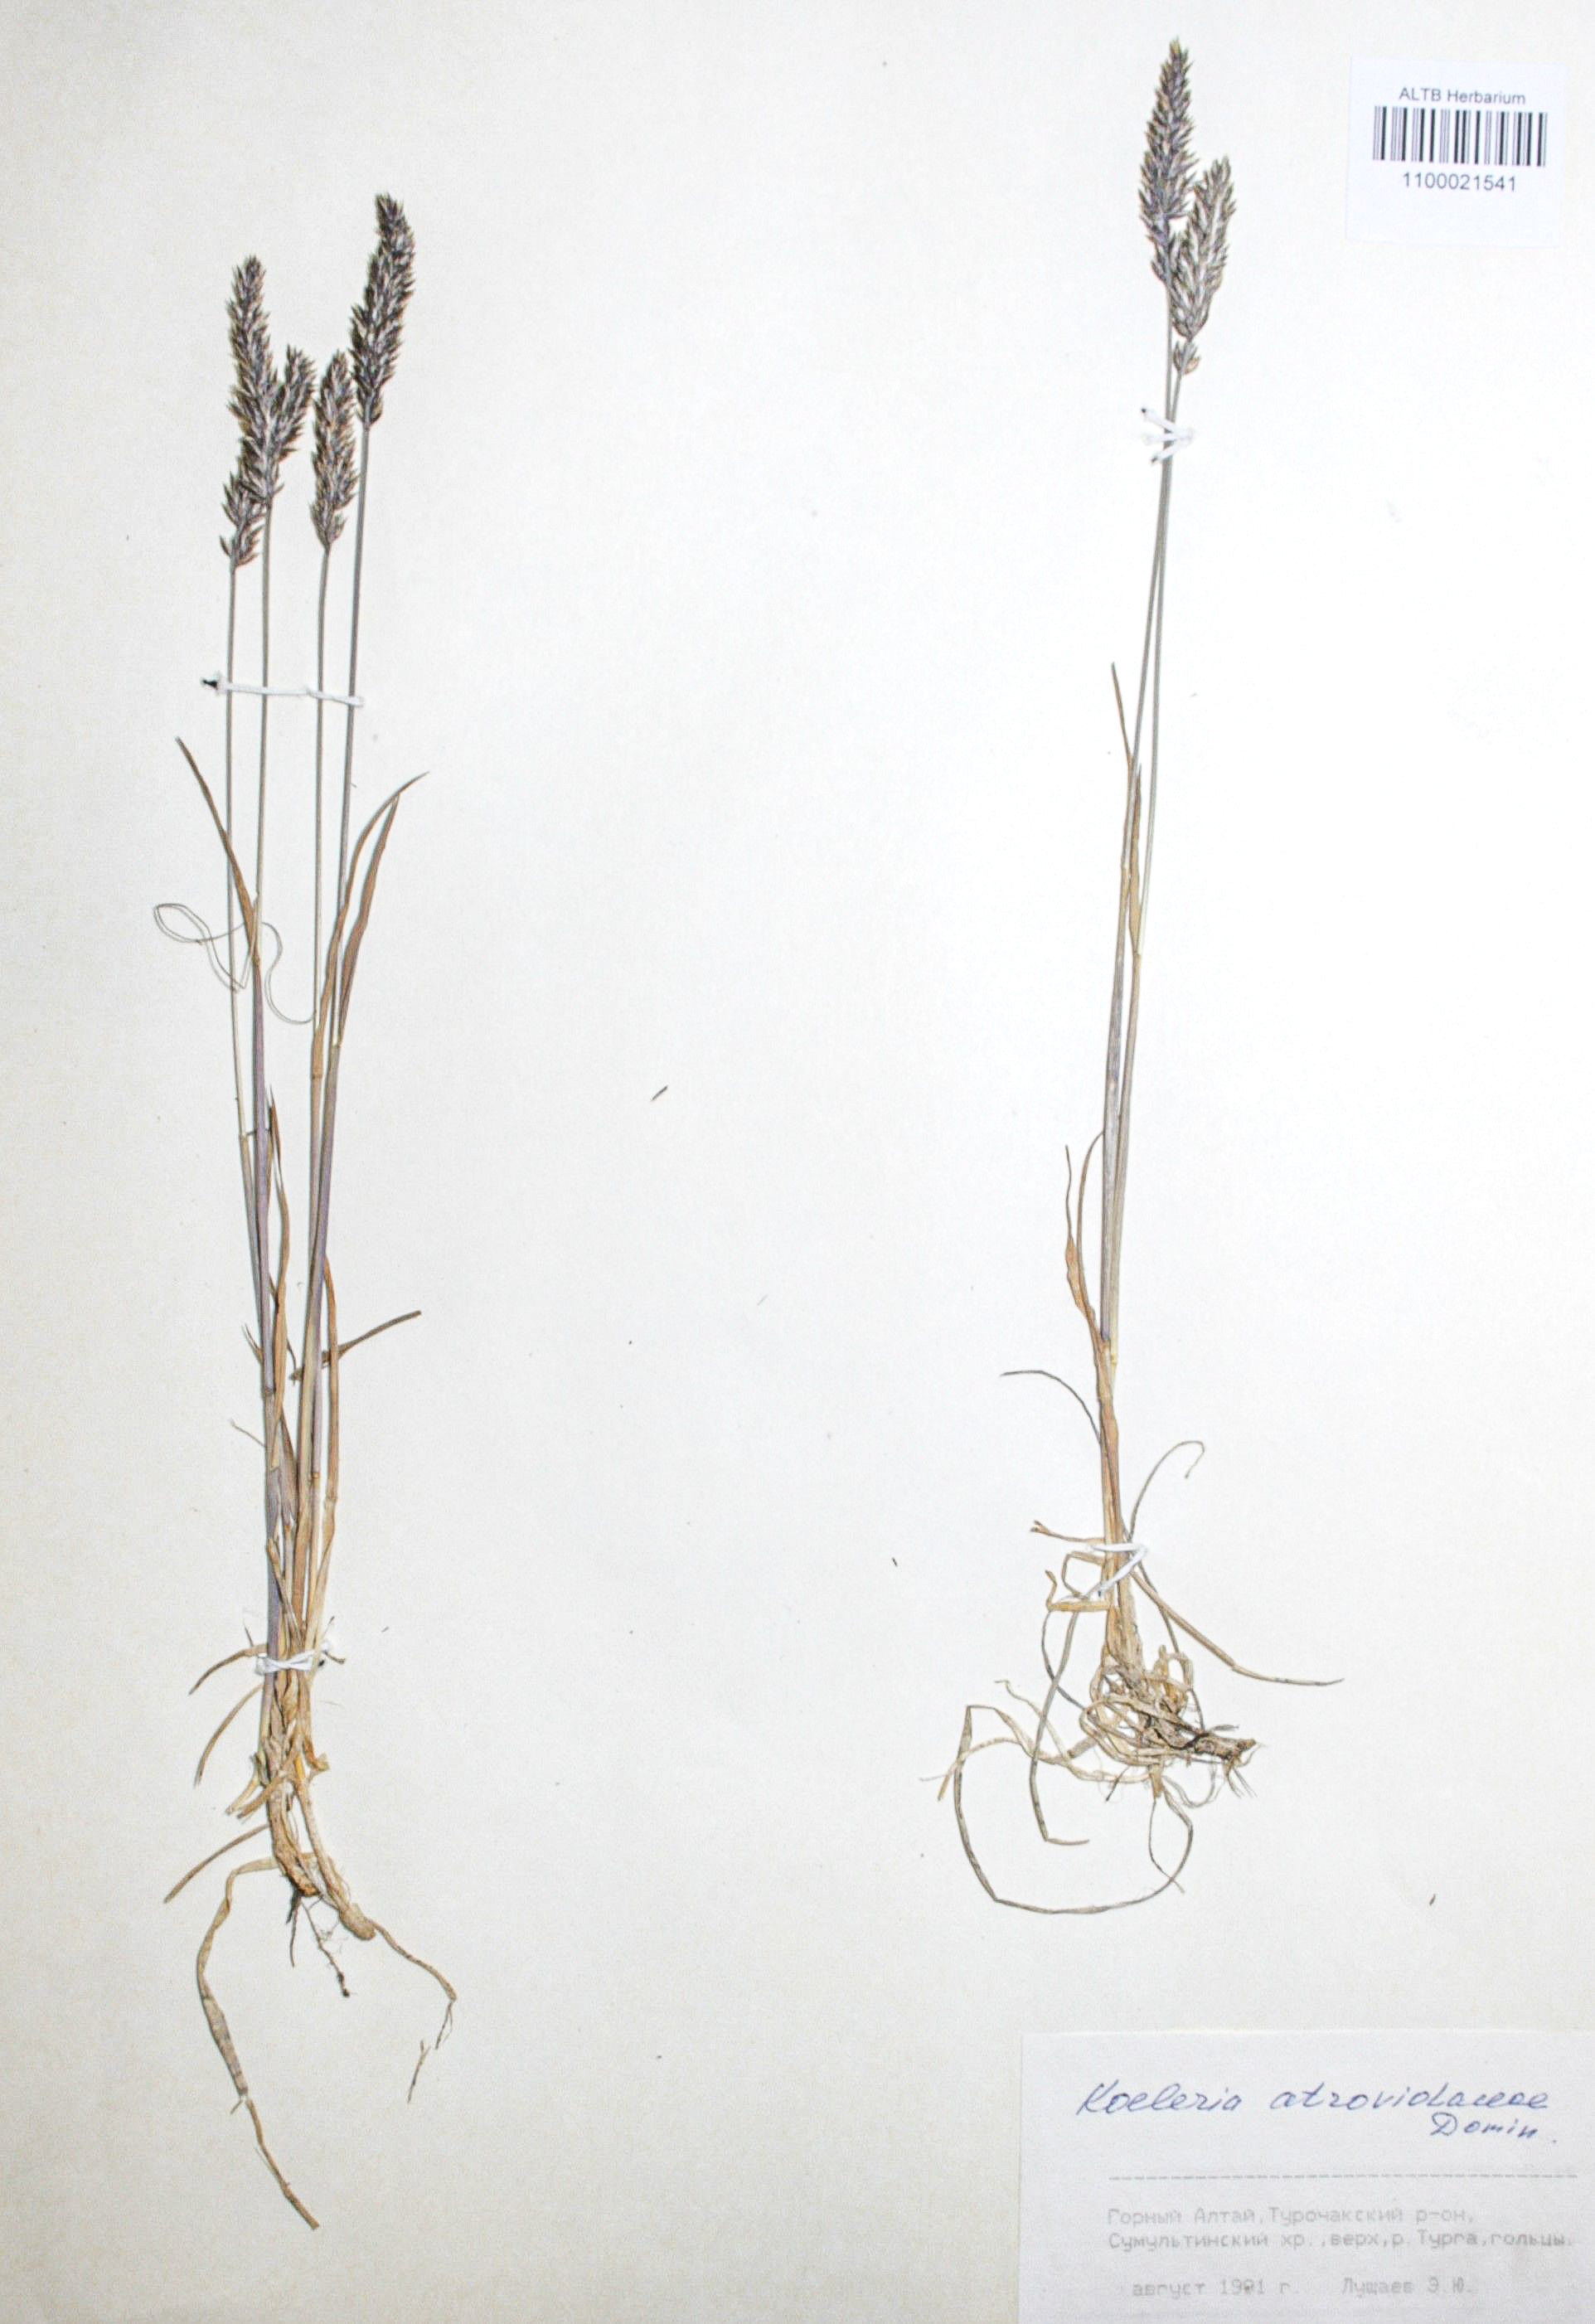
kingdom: Plantae
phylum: Tracheophyta
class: Liliopsida
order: Poales
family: Poaceae
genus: Koeleria
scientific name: Koeleria asiatica
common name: Eurasian junegrass
